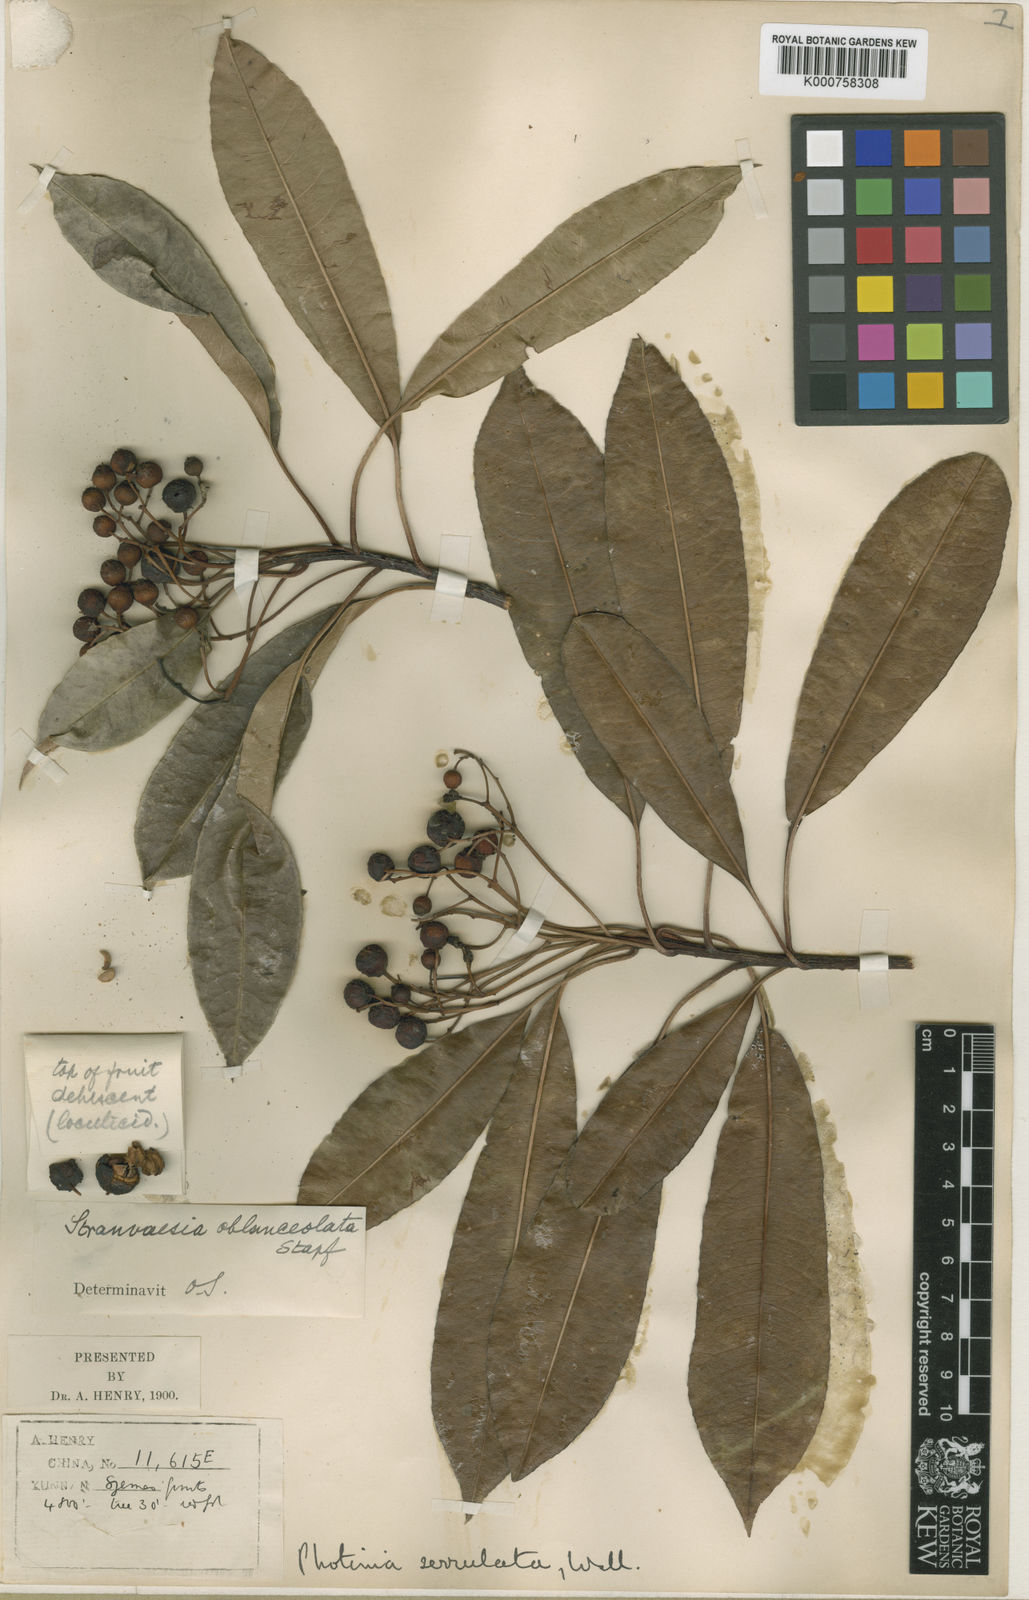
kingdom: Plantae
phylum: Tracheophyta
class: Magnoliopsida
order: Rosales
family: Rosaceae
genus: Photinia
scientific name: Photinia
